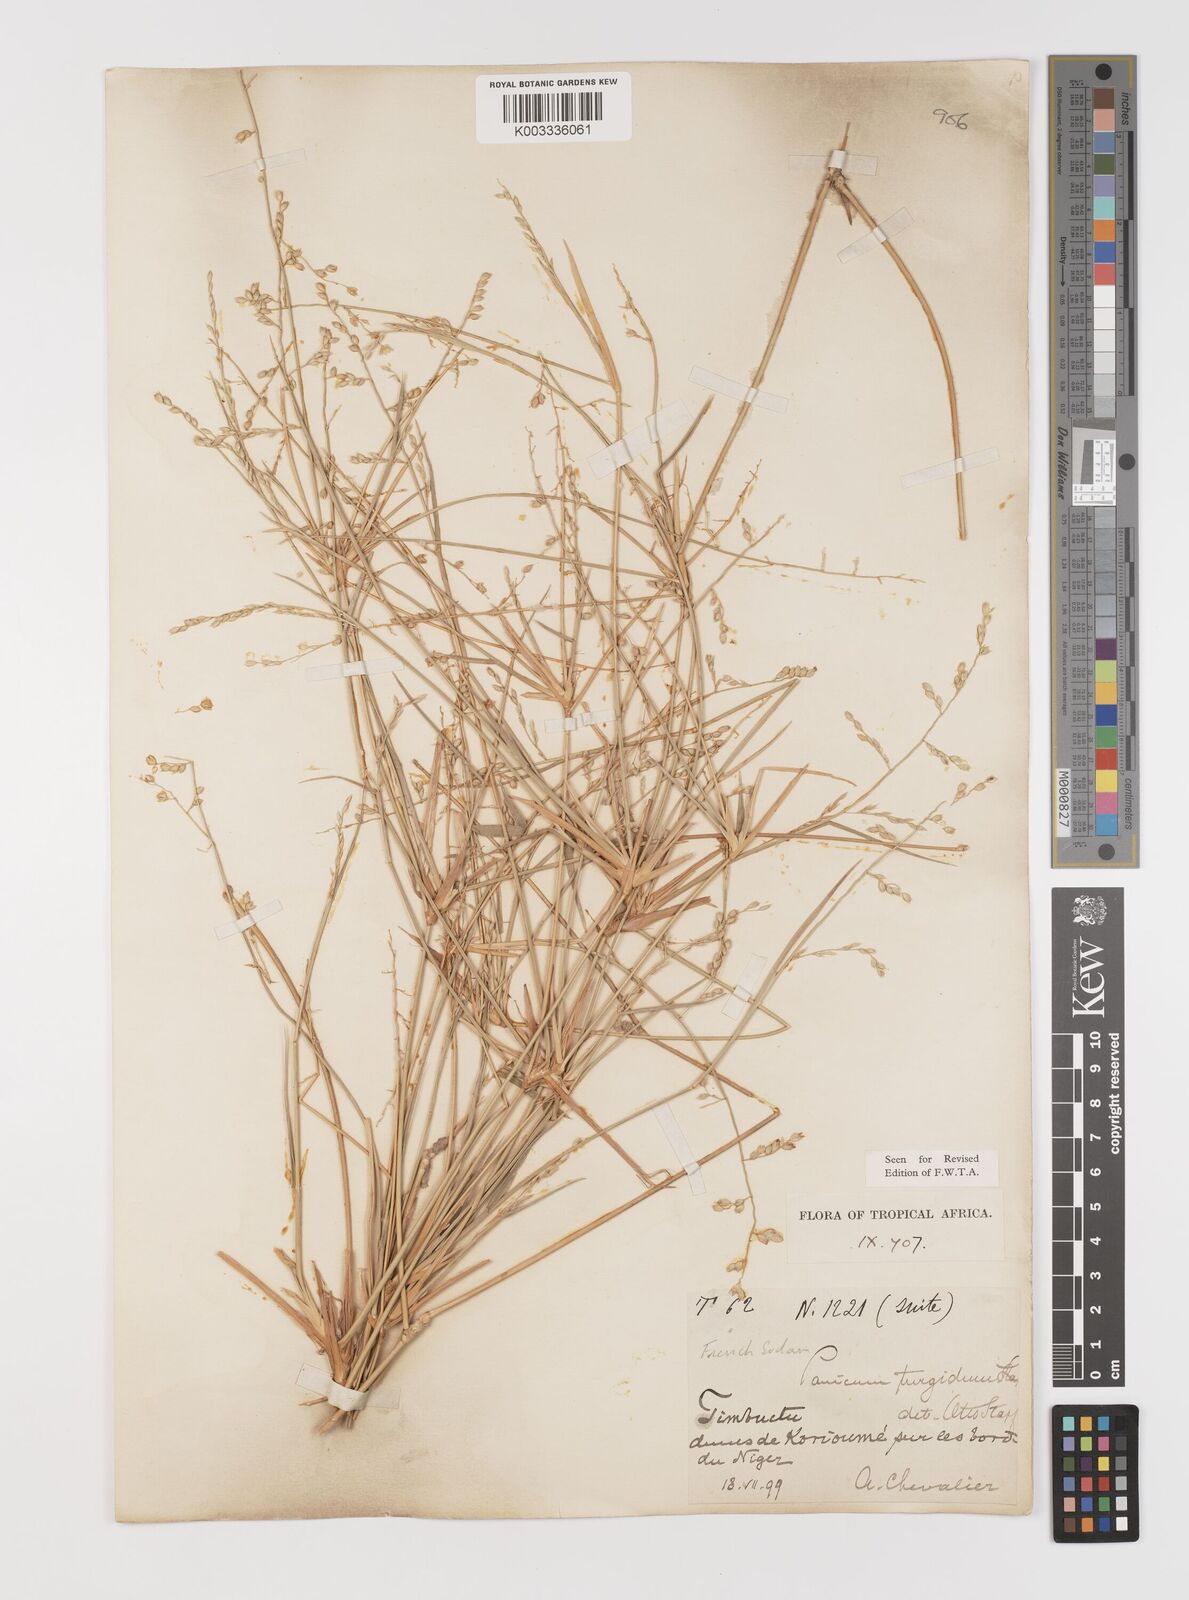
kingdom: Plantae
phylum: Tracheophyta
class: Liliopsida
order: Poales
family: Poaceae
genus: Panicum
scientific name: Panicum turgidum
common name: Desert grass
